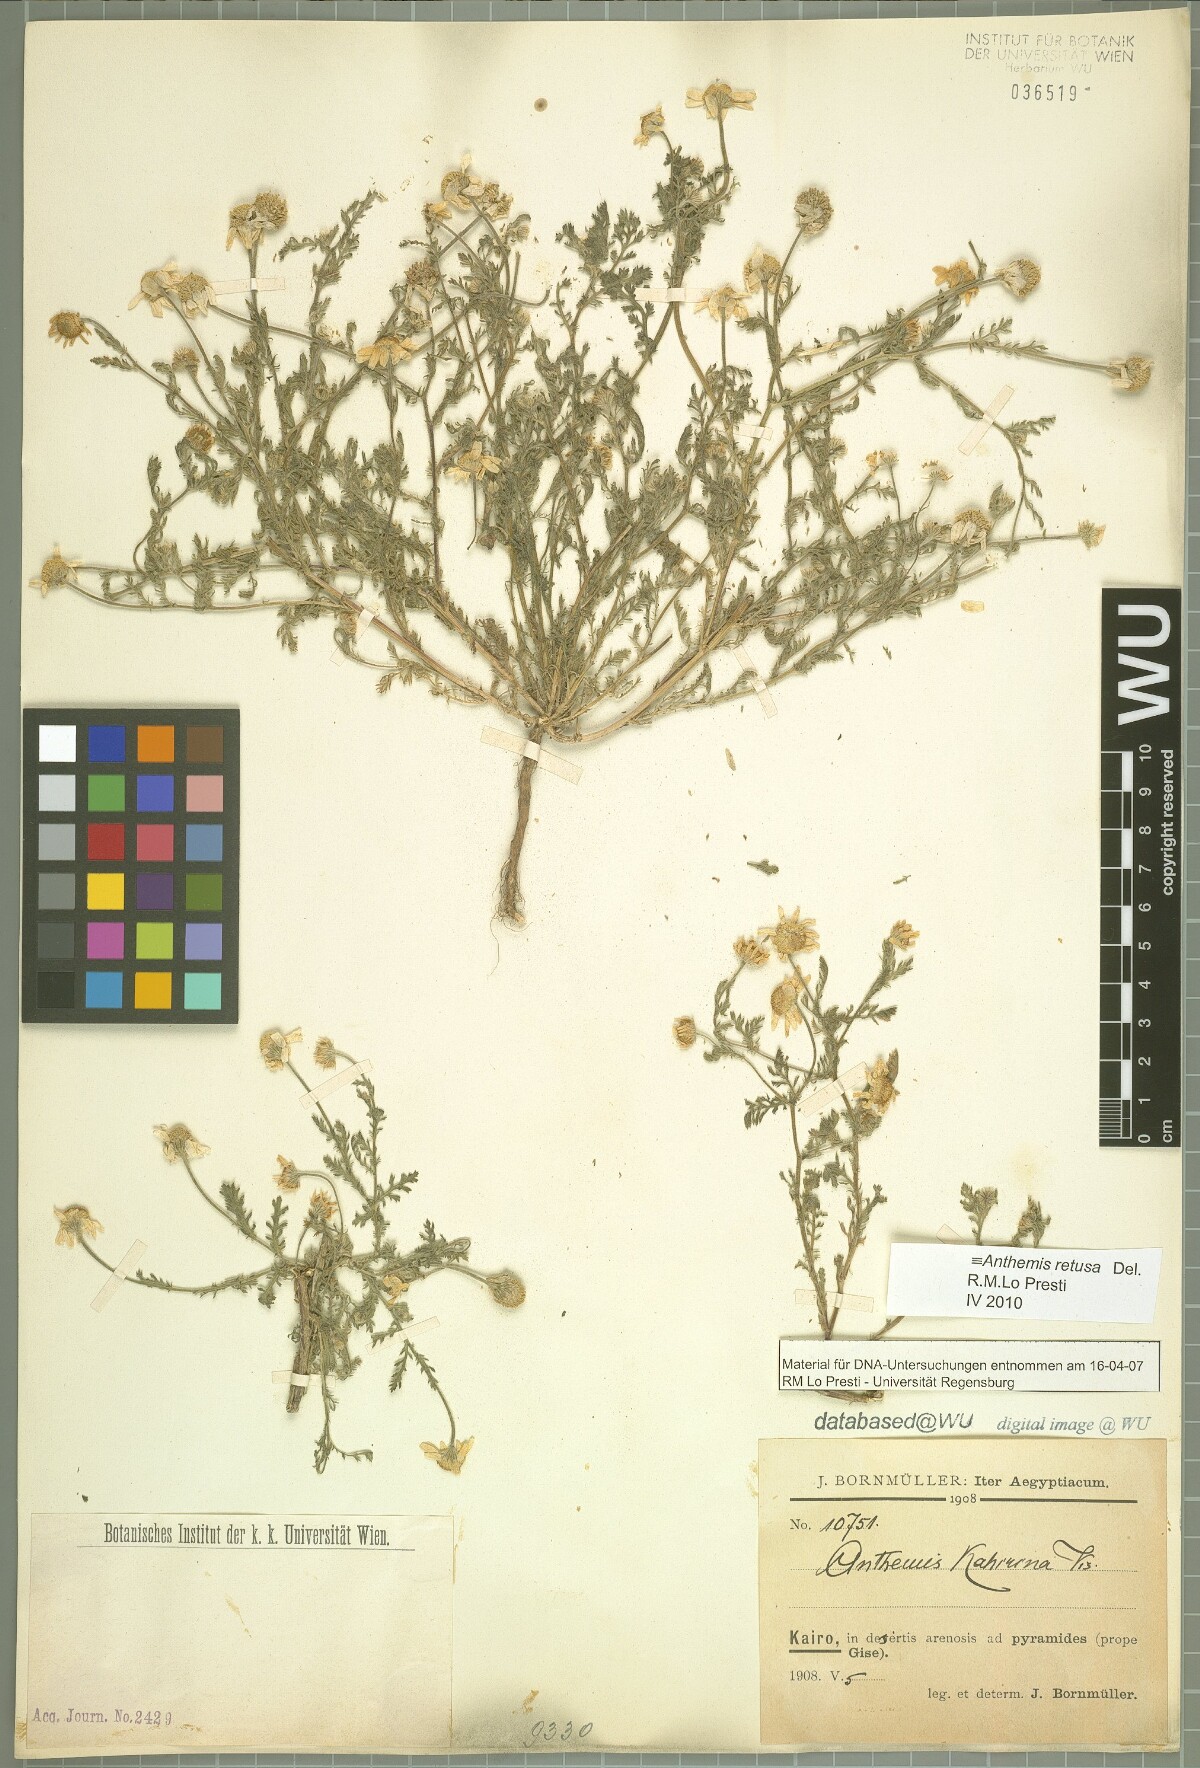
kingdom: Plantae
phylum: Tracheophyta
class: Magnoliopsida
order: Asterales
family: Asteraceae
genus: Anthemis
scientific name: Anthemis retusa
